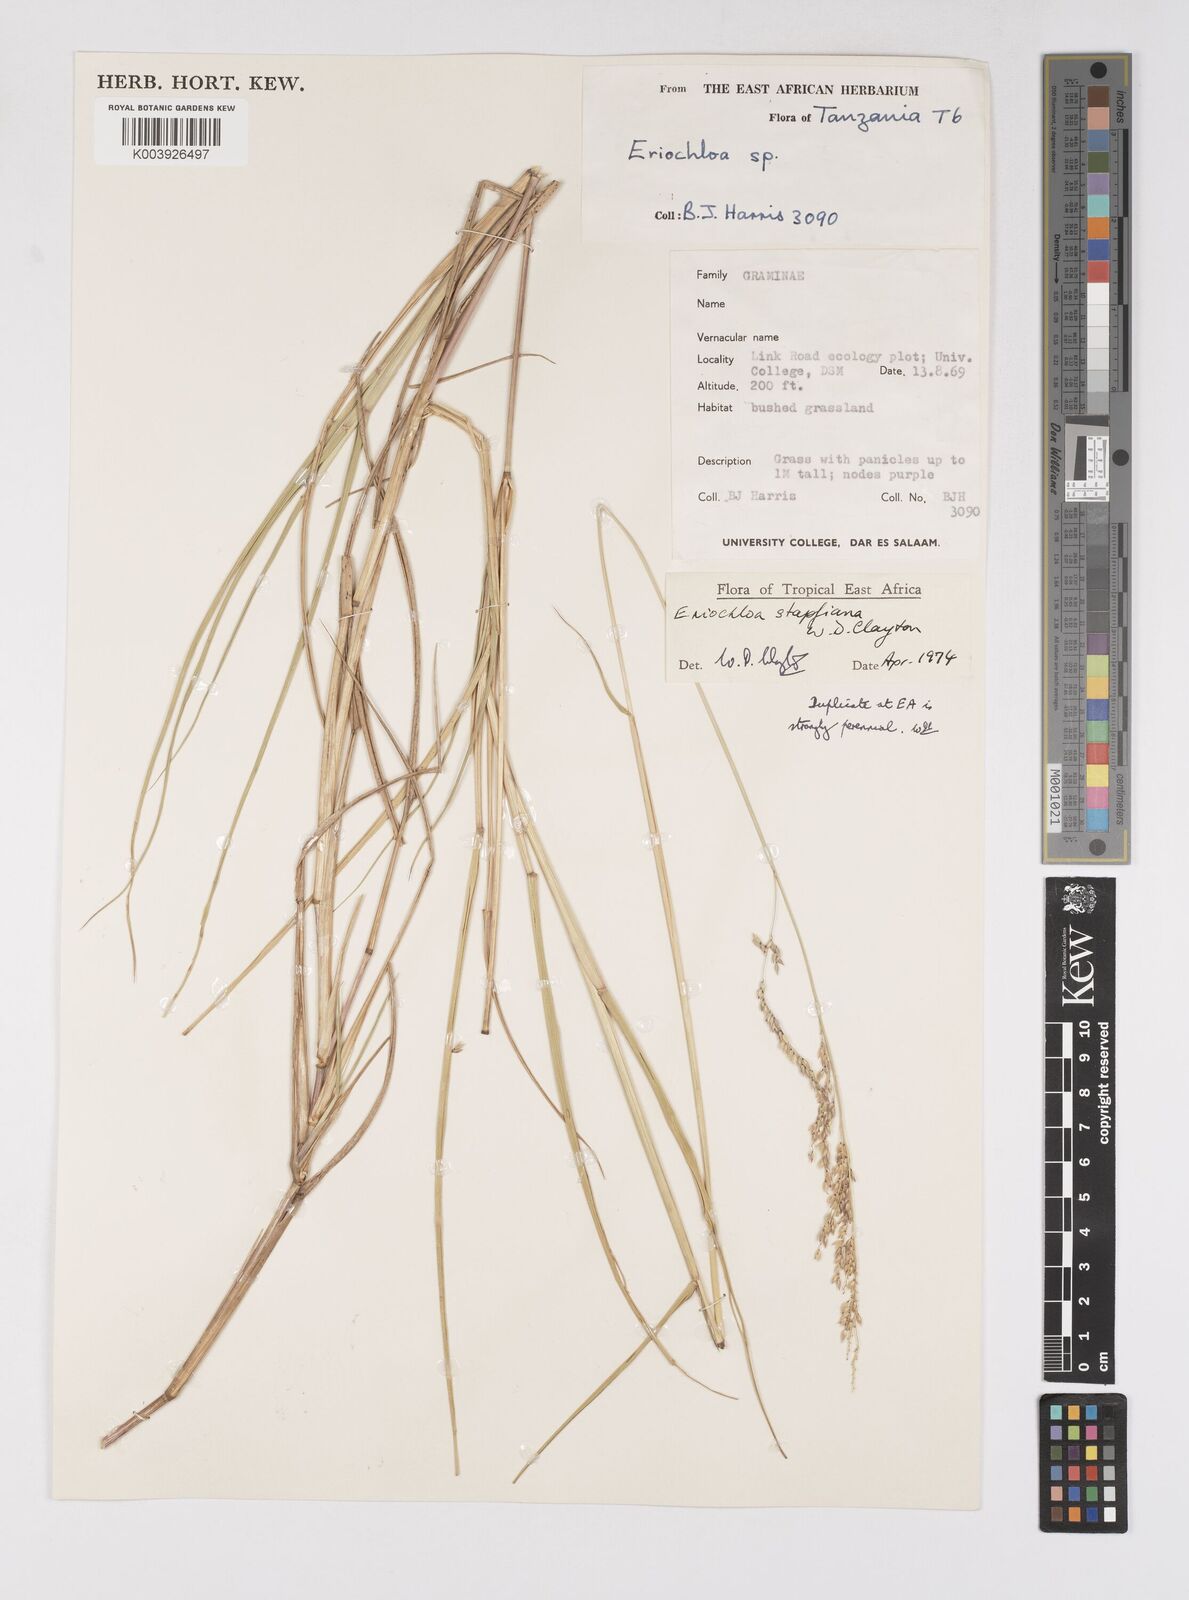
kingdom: Plantae
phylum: Tracheophyta
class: Liliopsida
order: Poales
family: Poaceae
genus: Eriochloa
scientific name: Eriochloa stapfiana
